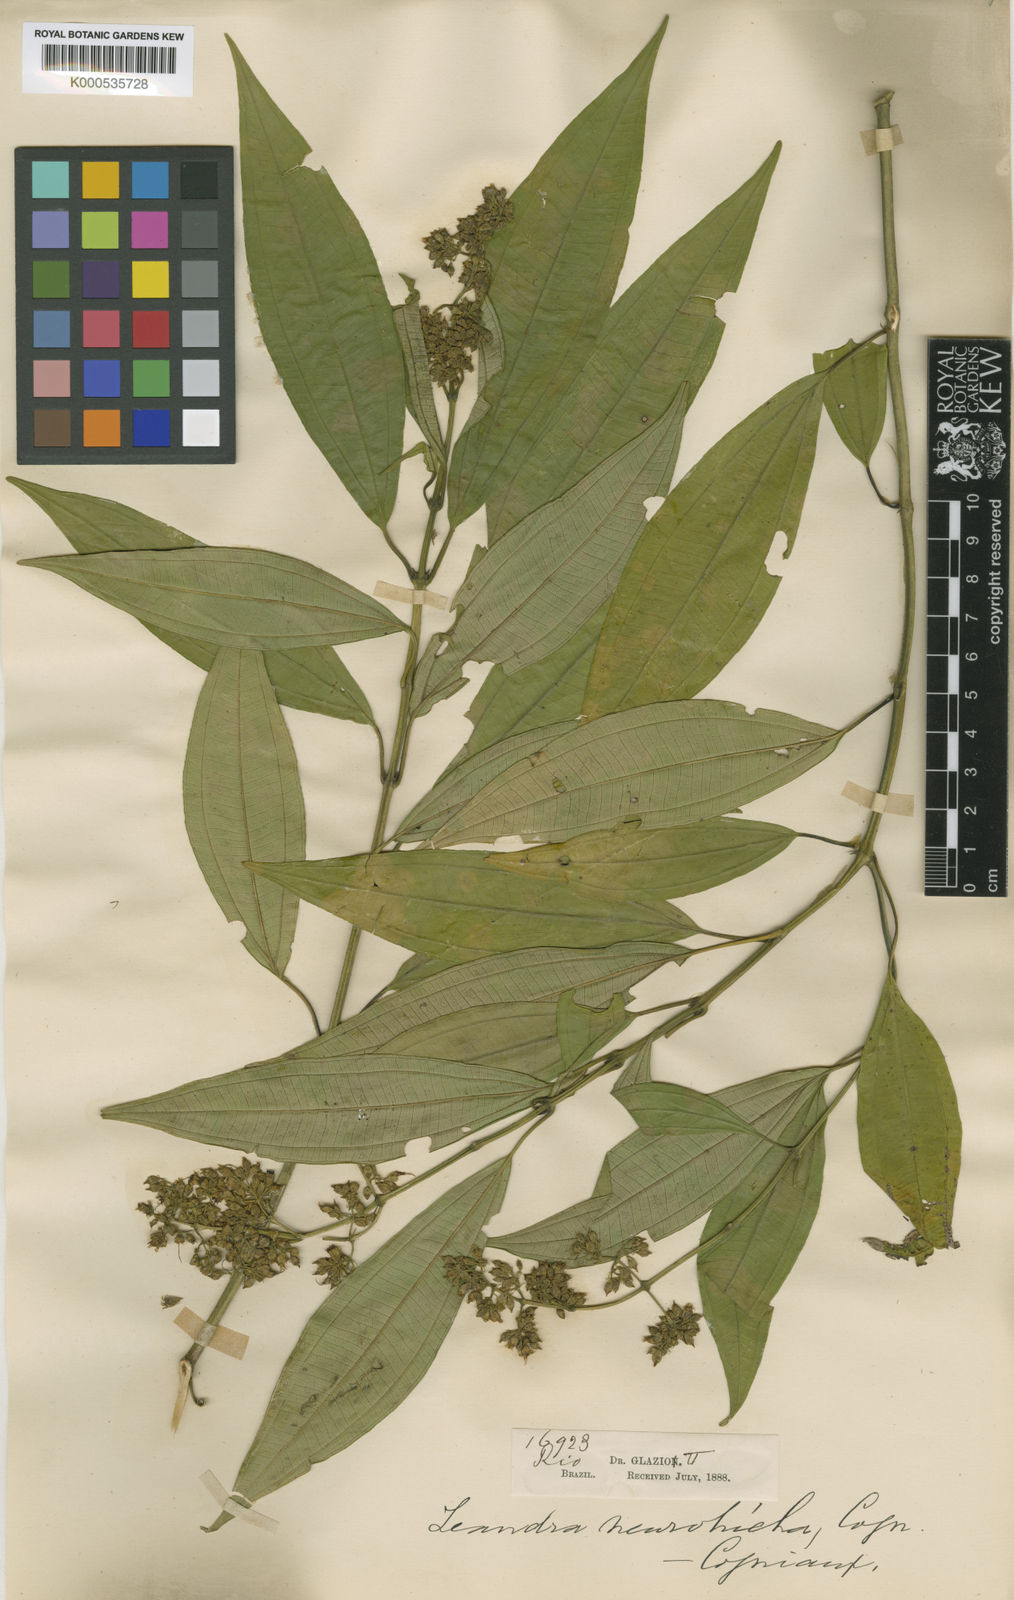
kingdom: Plantae
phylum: Tracheophyta
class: Magnoliopsida
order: Myrtales
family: Melastomataceae
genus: Miconia
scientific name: Miconia leaneurotricha
